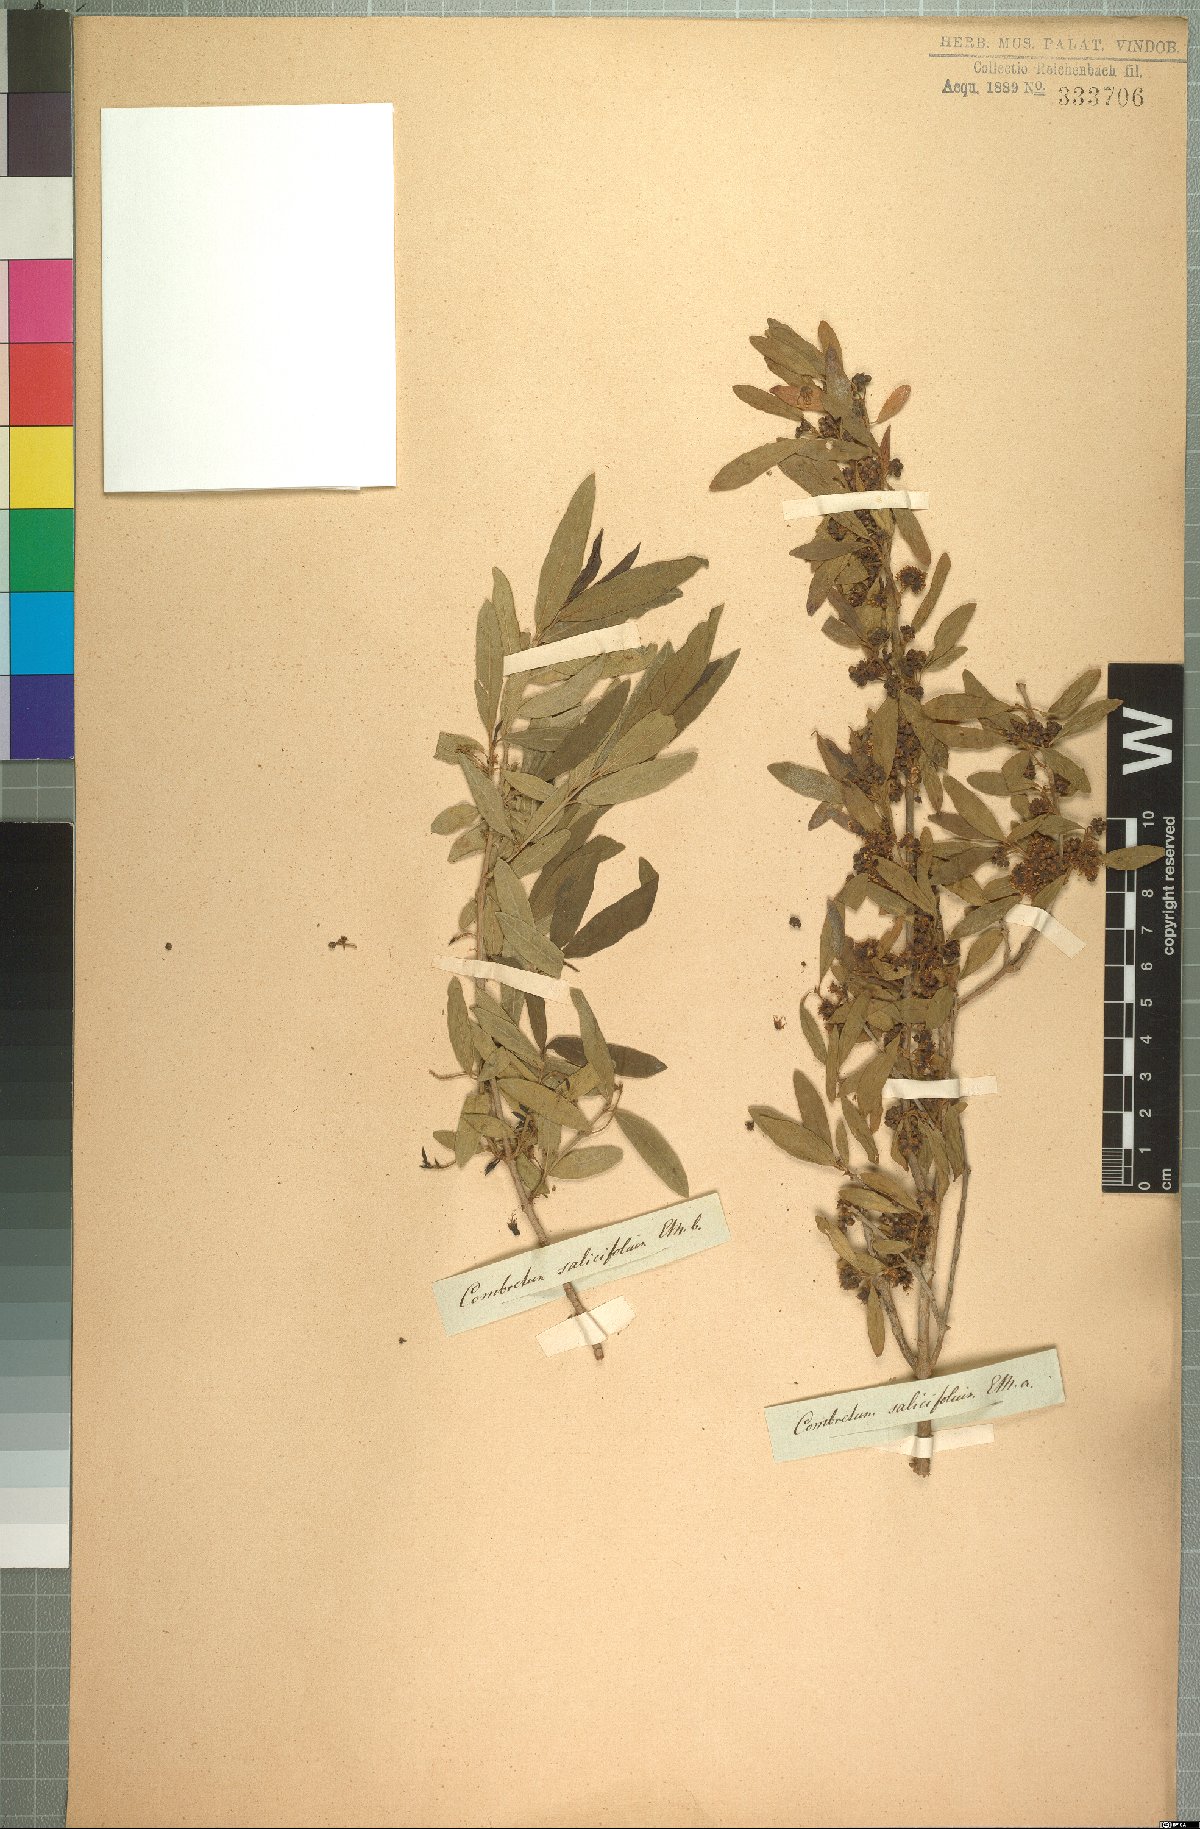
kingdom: Plantae
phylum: Tracheophyta
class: Magnoliopsida
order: Myrtales
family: Combretaceae
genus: Combretum
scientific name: Combretum caffrum
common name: Cape bushwillow
